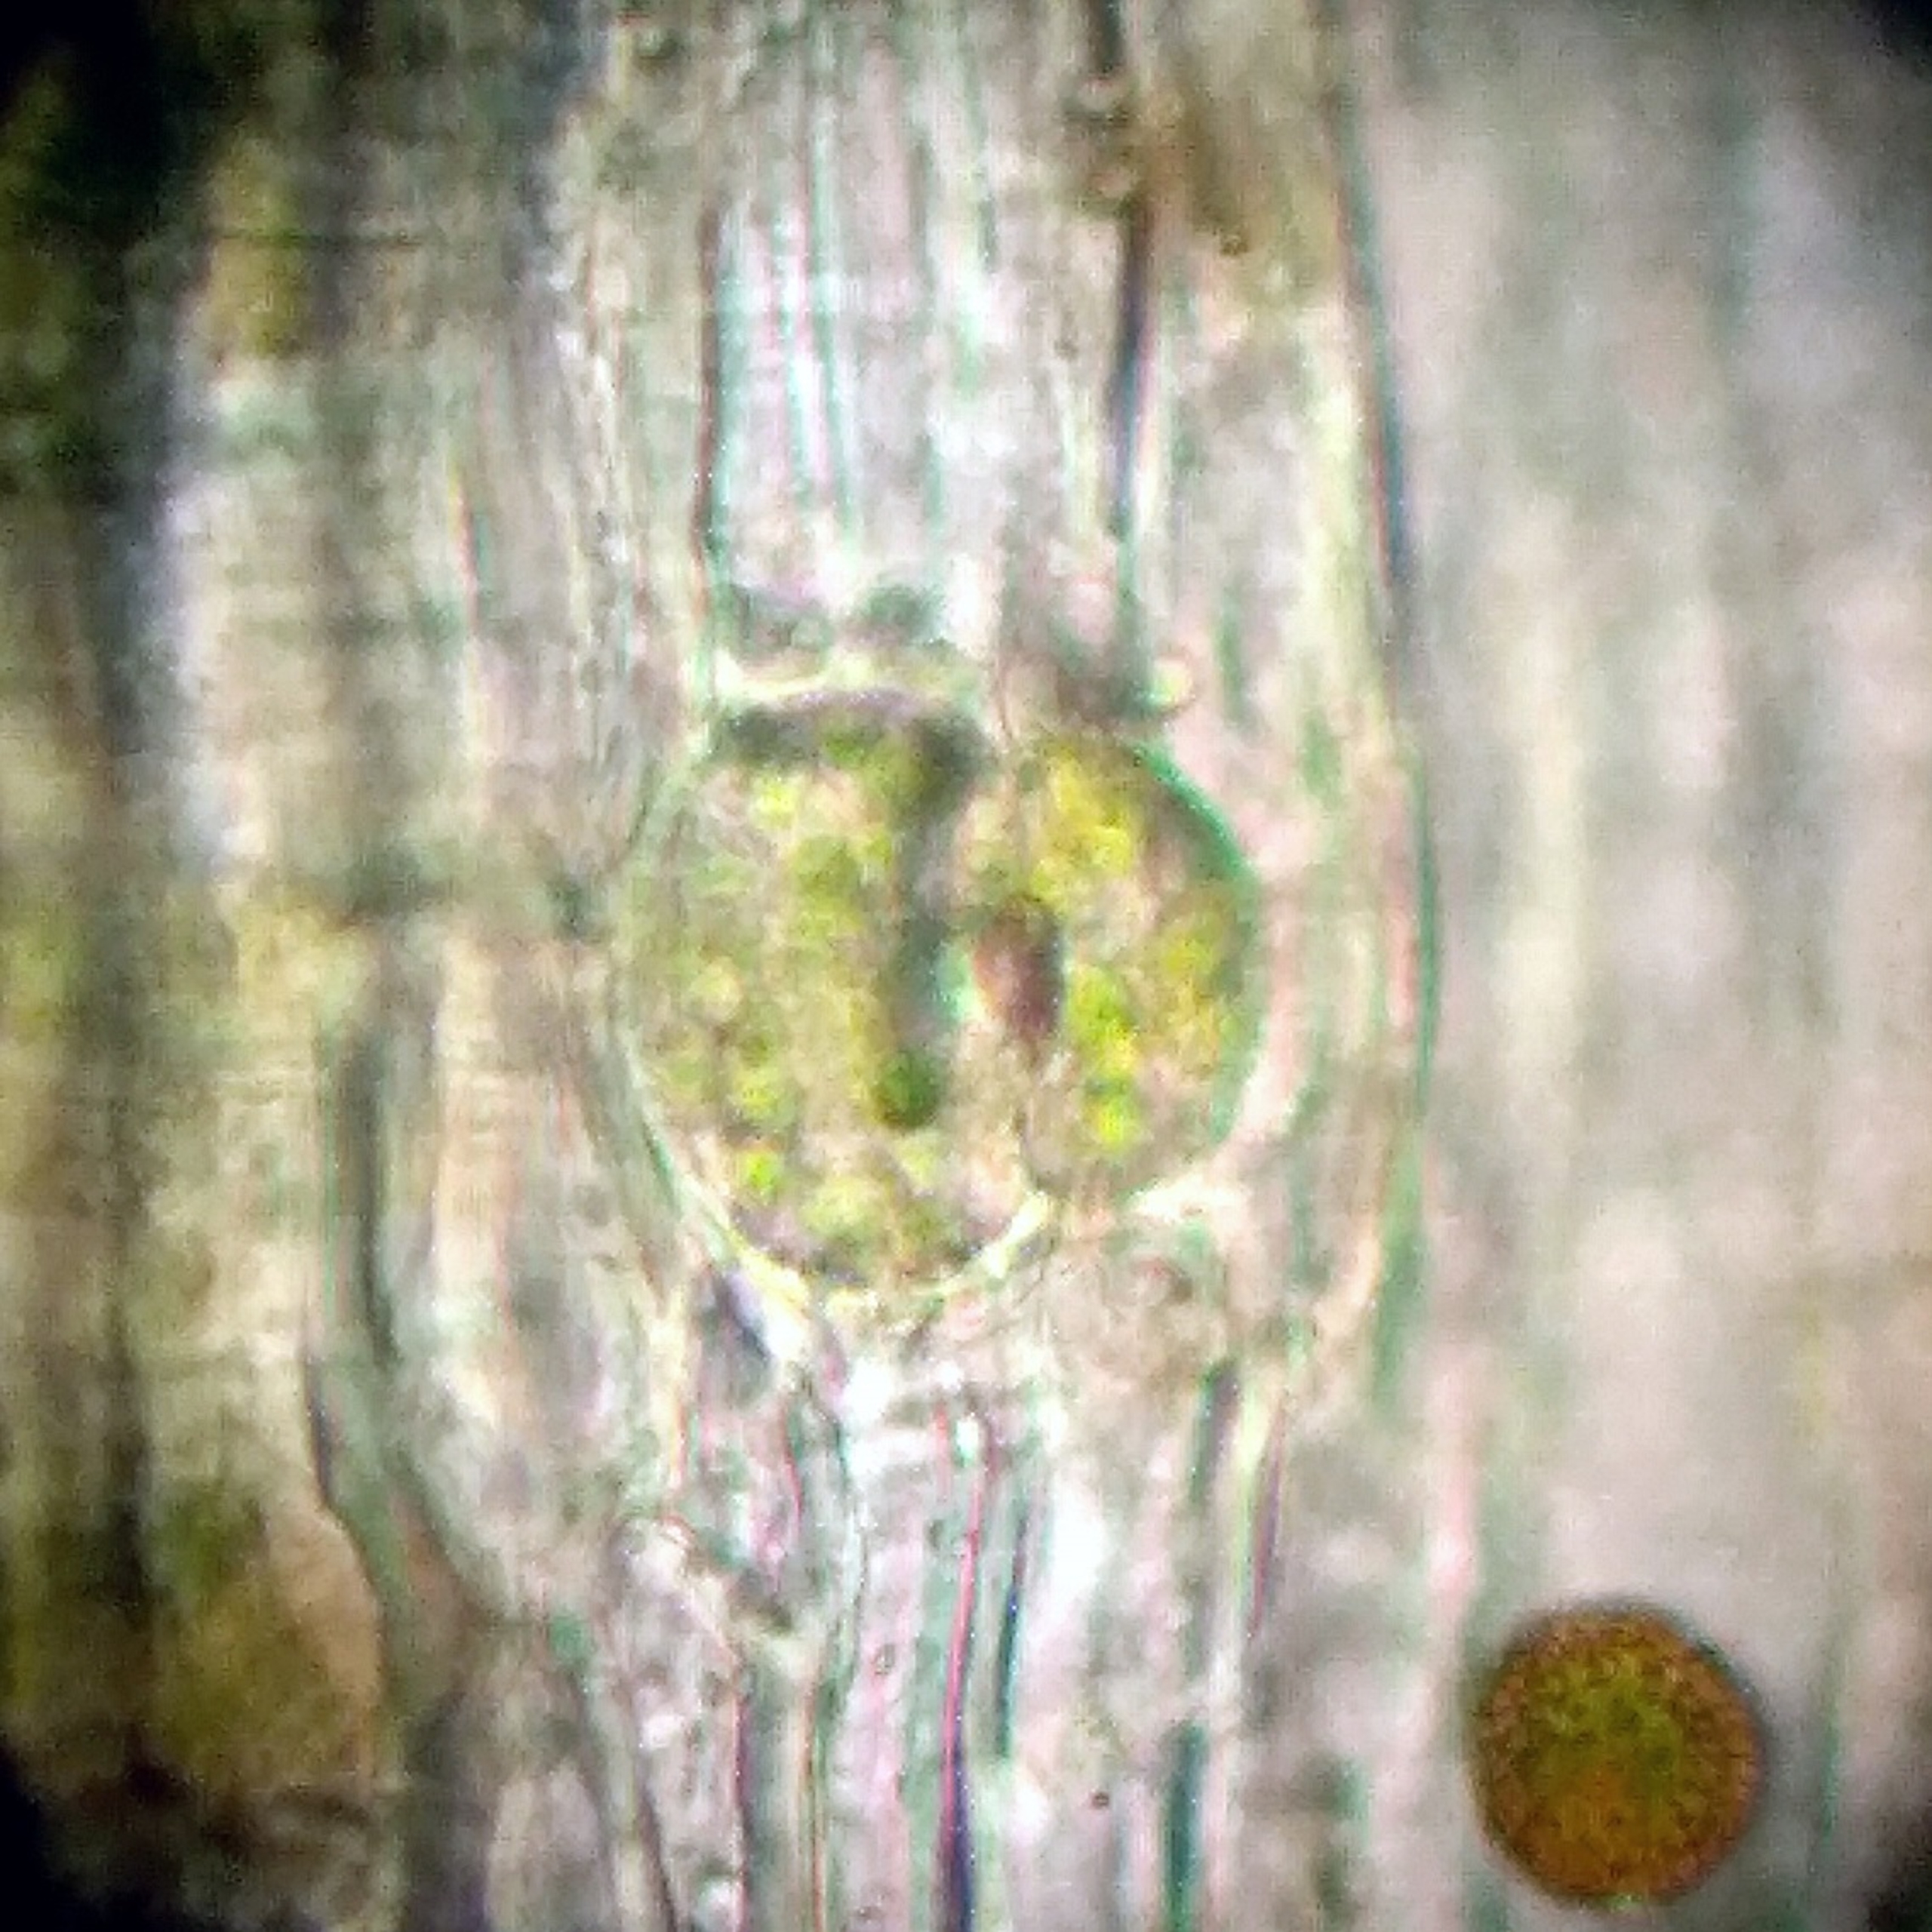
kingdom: Plantae
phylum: Bryophyta
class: Bryopsida
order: Orthotrichales
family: Orthotrichaceae
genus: Lewinskya
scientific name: Lewinskya affinis
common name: Almindelig furehætte
